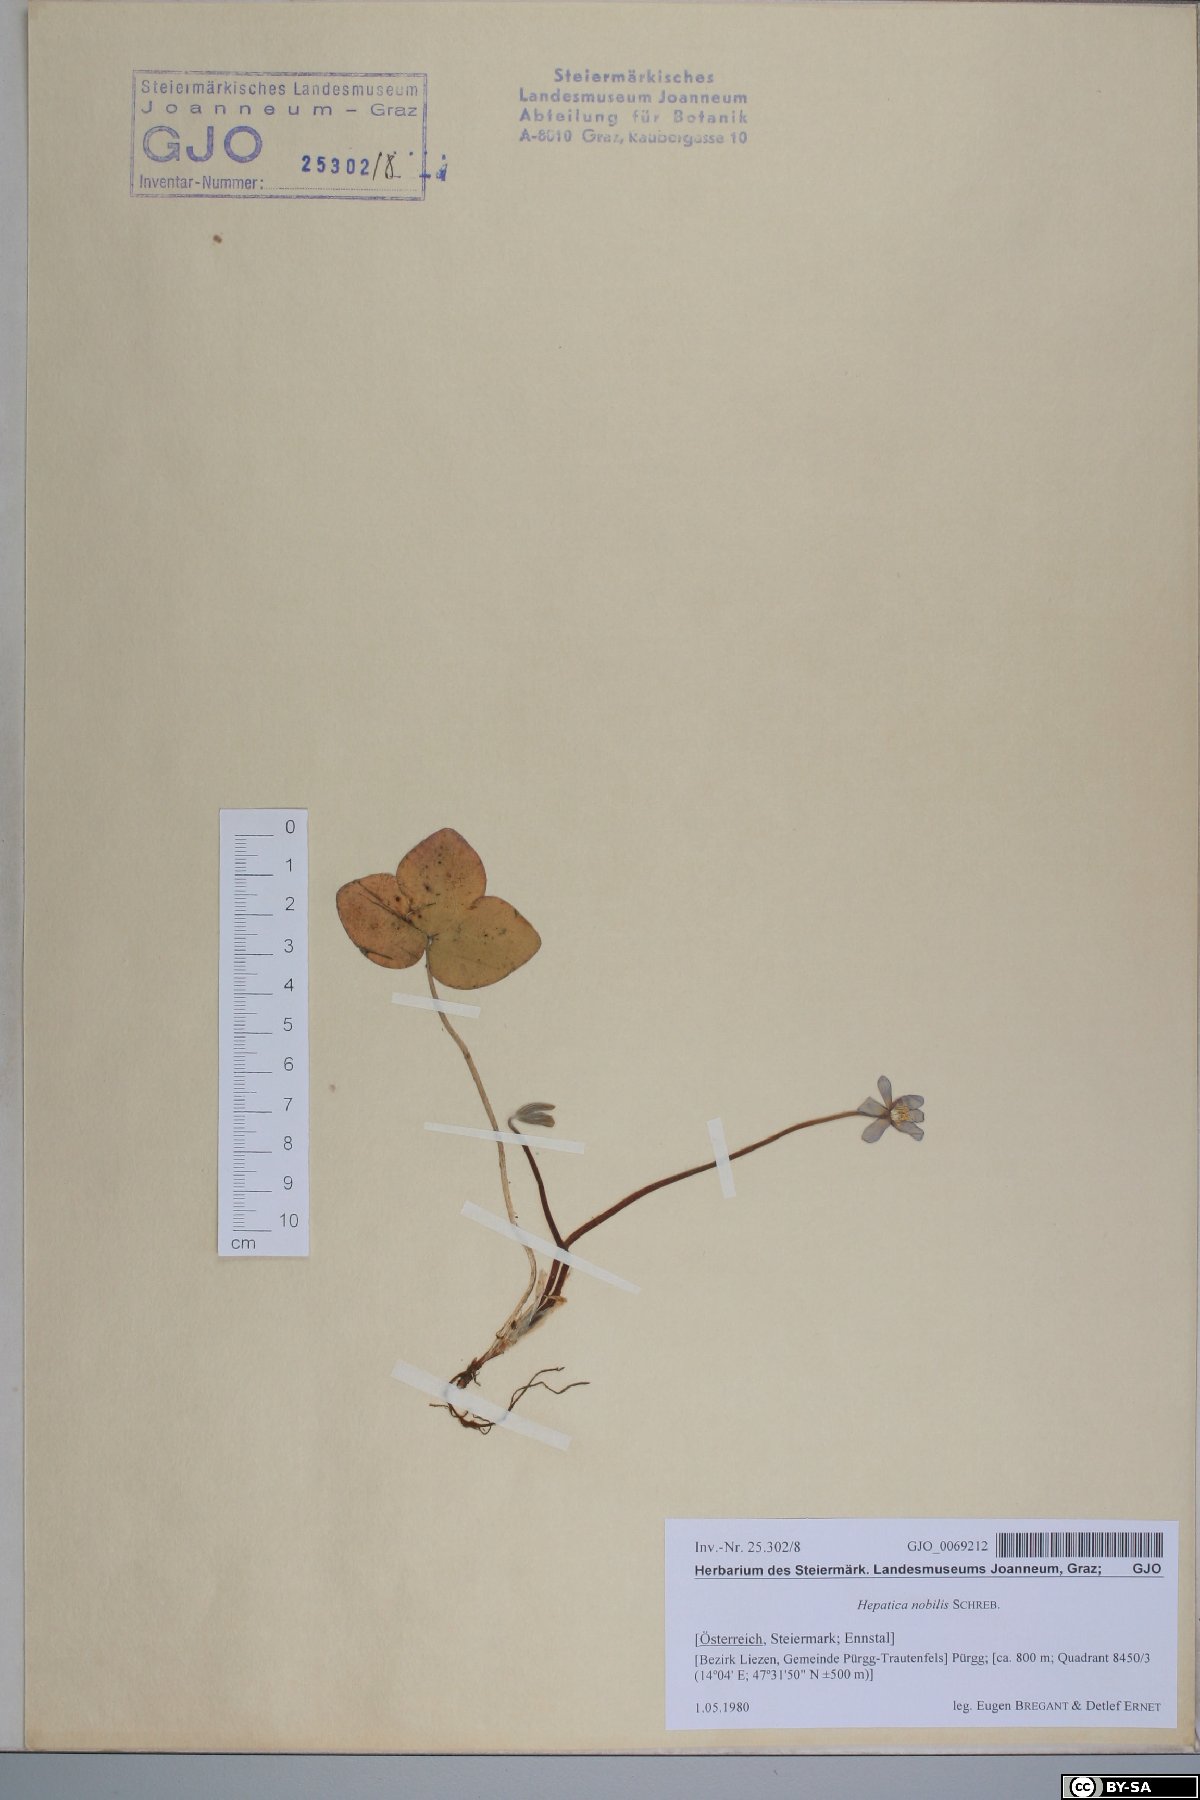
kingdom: Plantae
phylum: Tracheophyta
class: Magnoliopsida
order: Ranunculales
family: Ranunculaceae
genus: Hepatica
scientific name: Hepatica nobilis
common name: Liverleaf
